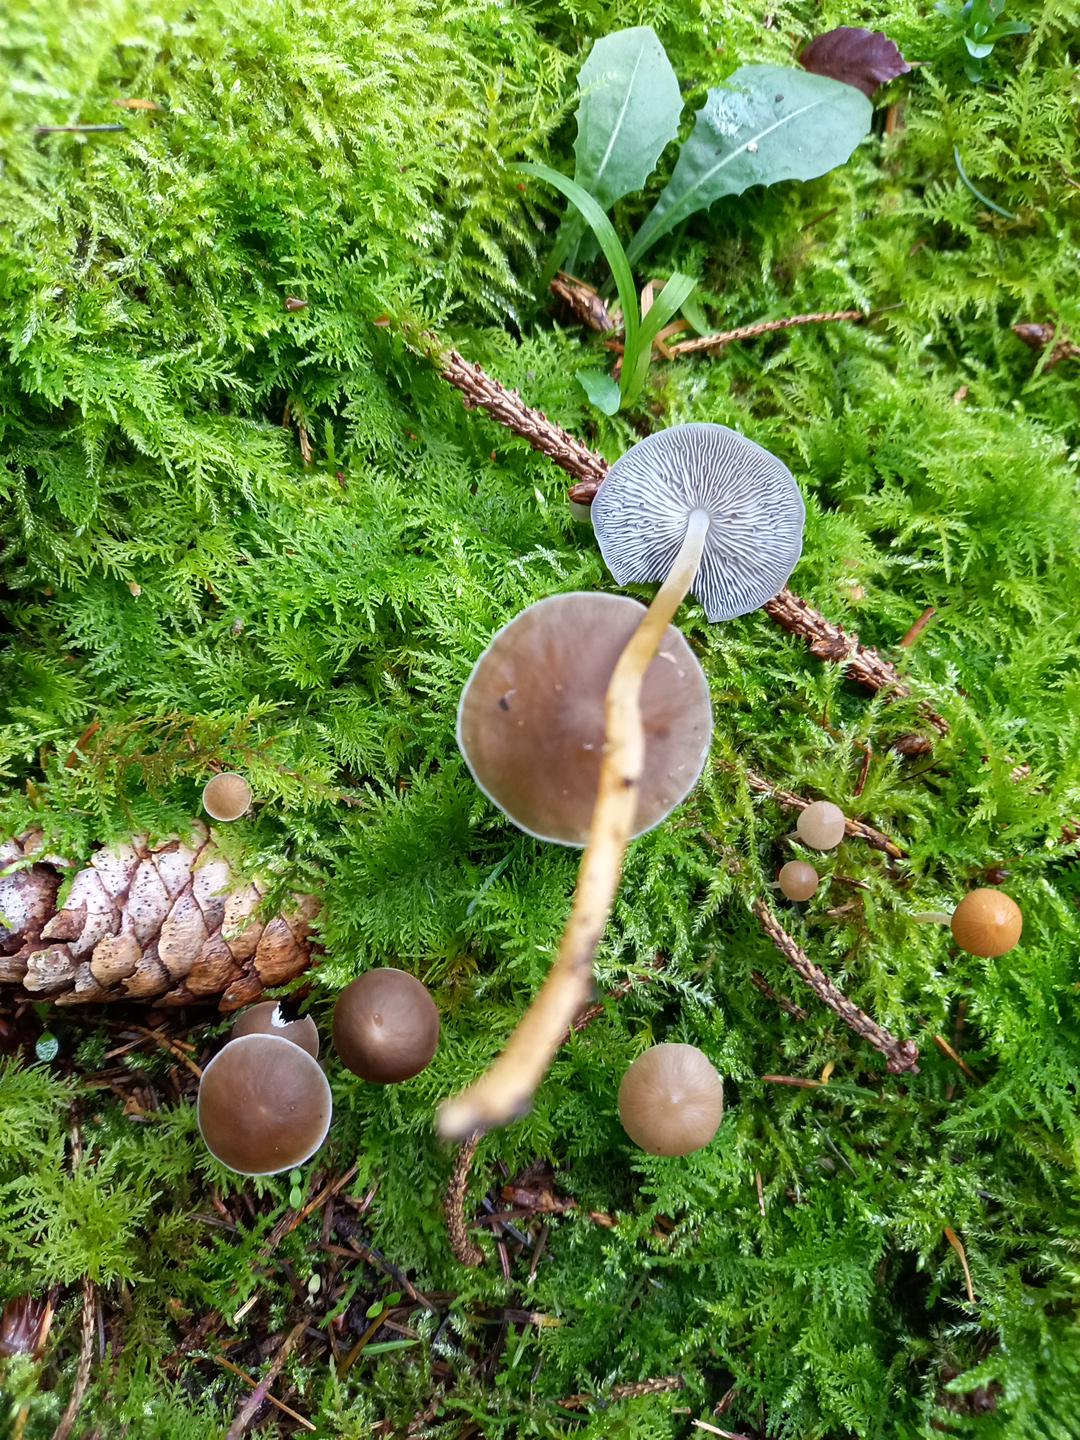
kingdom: Fungi
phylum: Basidiomycota
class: Agaricomycetes
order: Agaricales
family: Physalacriaceae
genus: Strobilurus
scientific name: Strobilurus esculentus
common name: gran-koglehat
